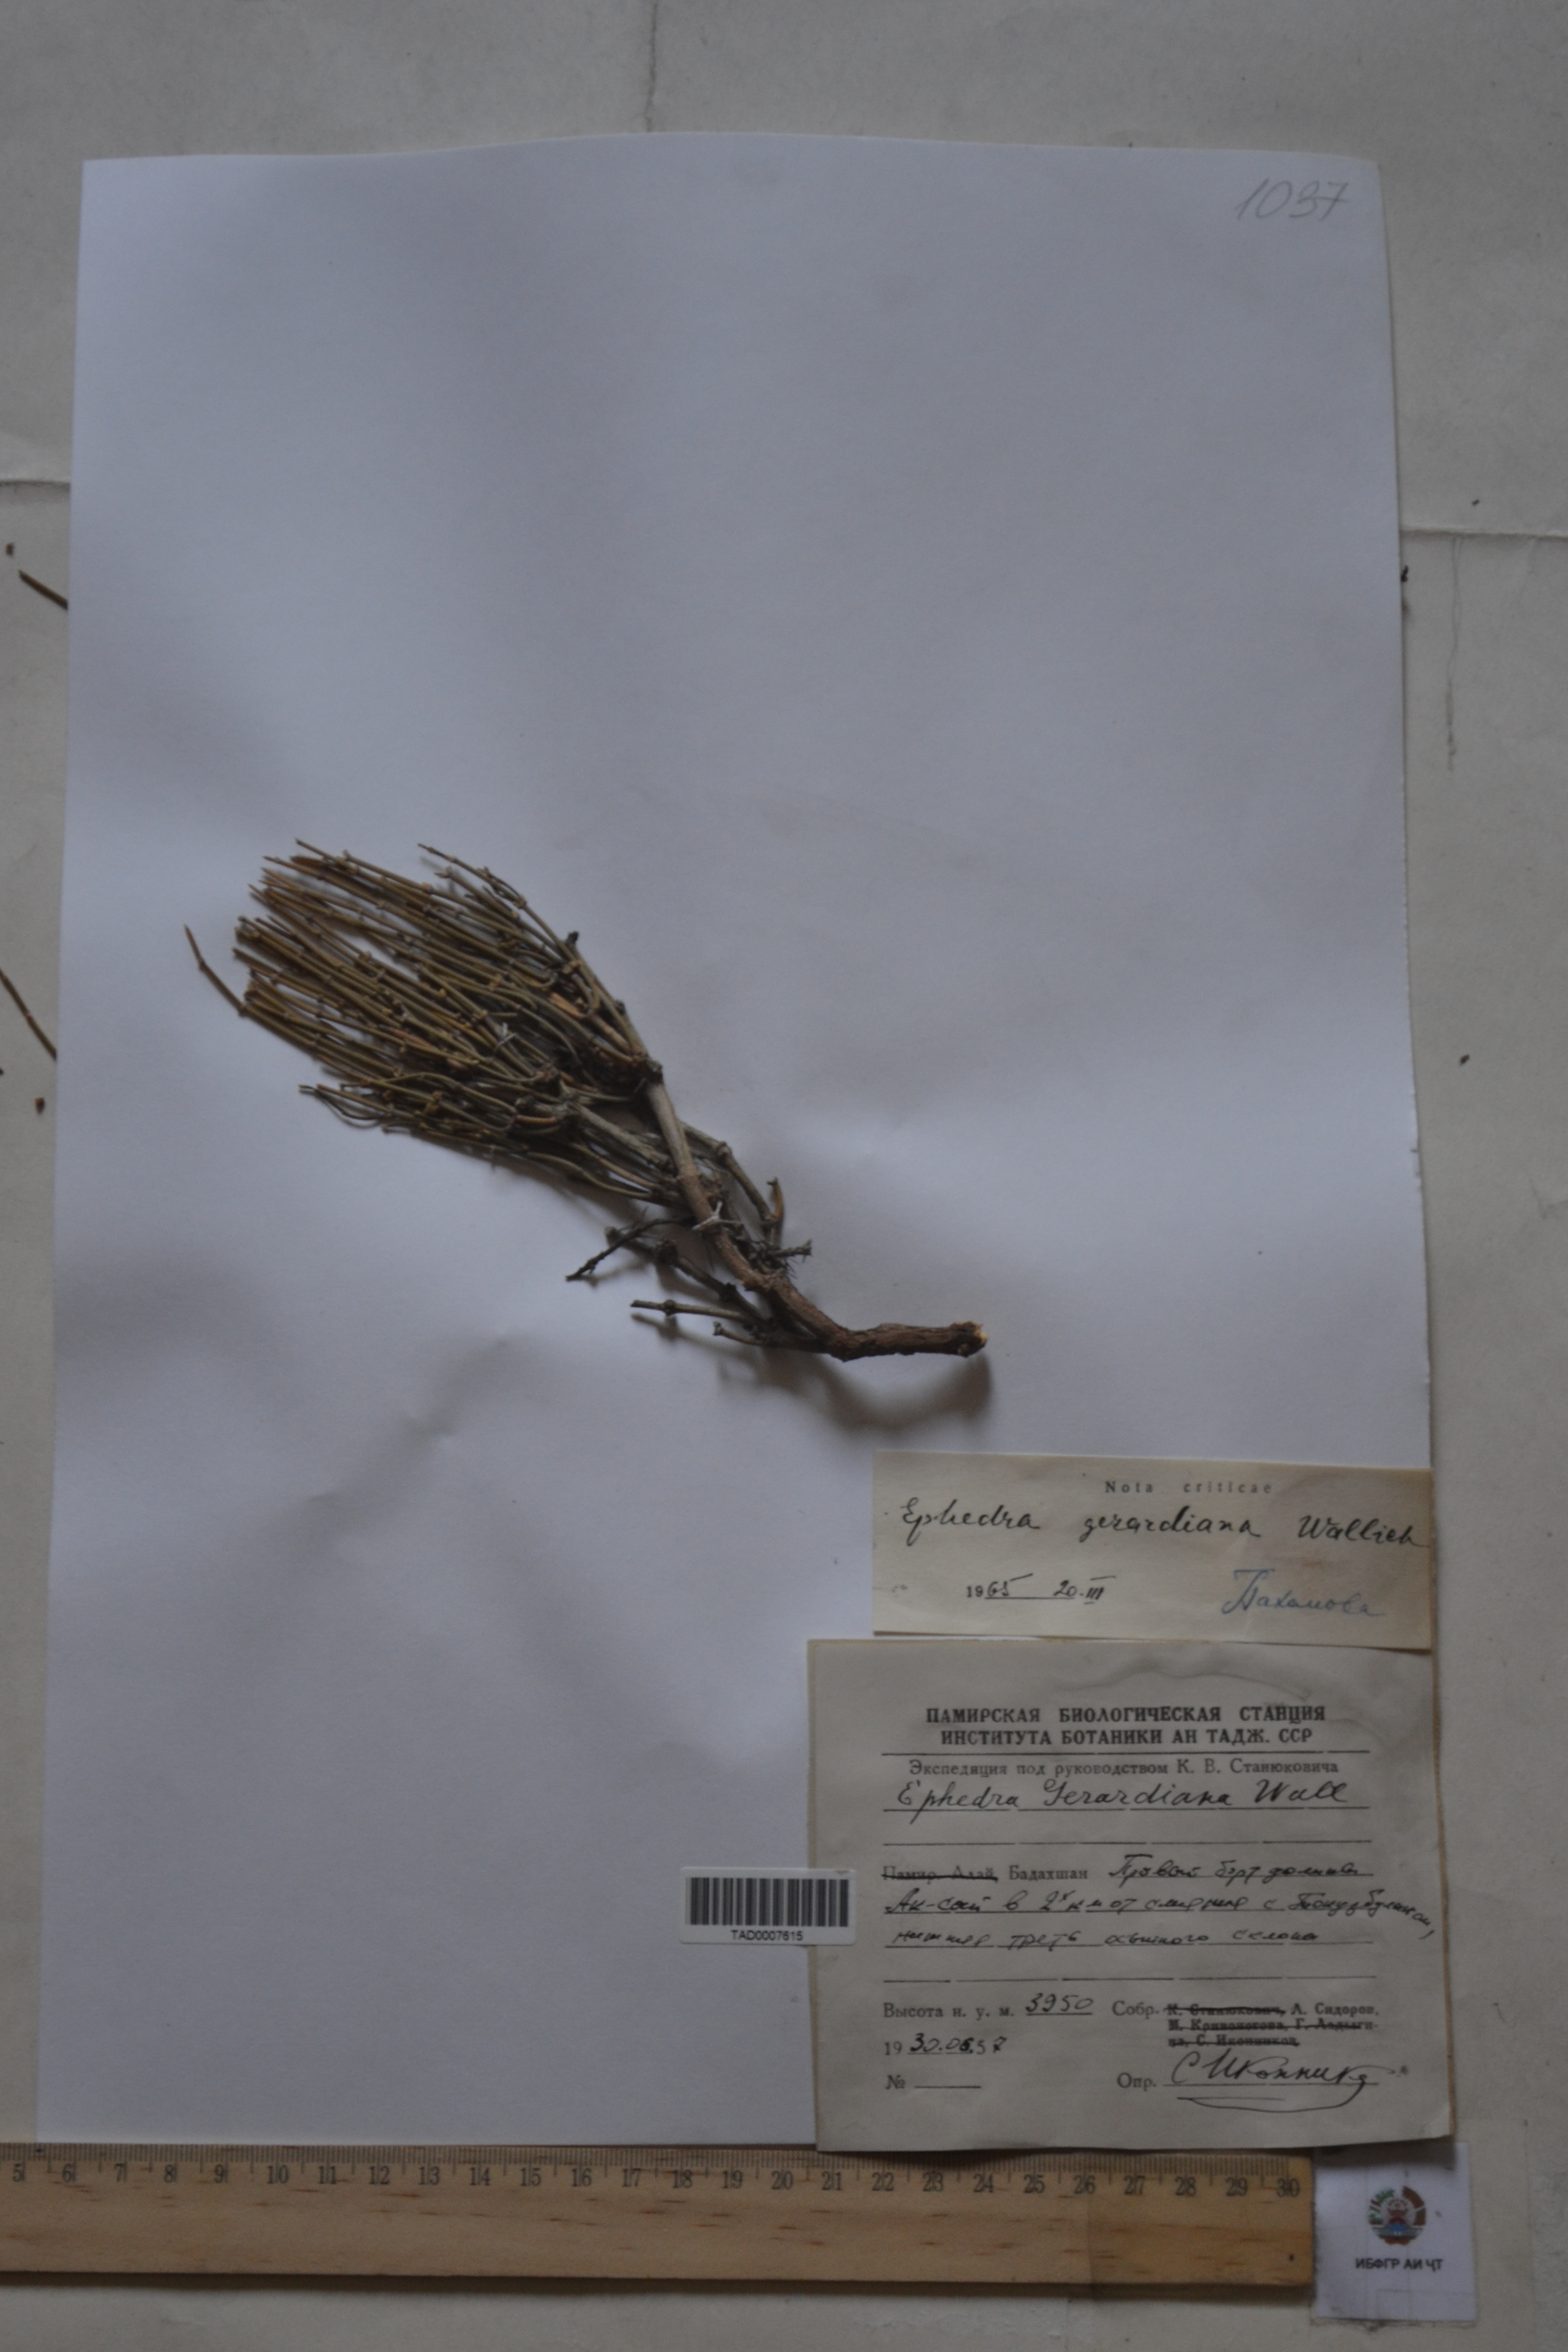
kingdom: Plantae
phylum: Tracheophyta
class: Gnetopsida
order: Ephedrales
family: Ephedraceae
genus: Ephedra
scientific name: Ephedra gerardiana
